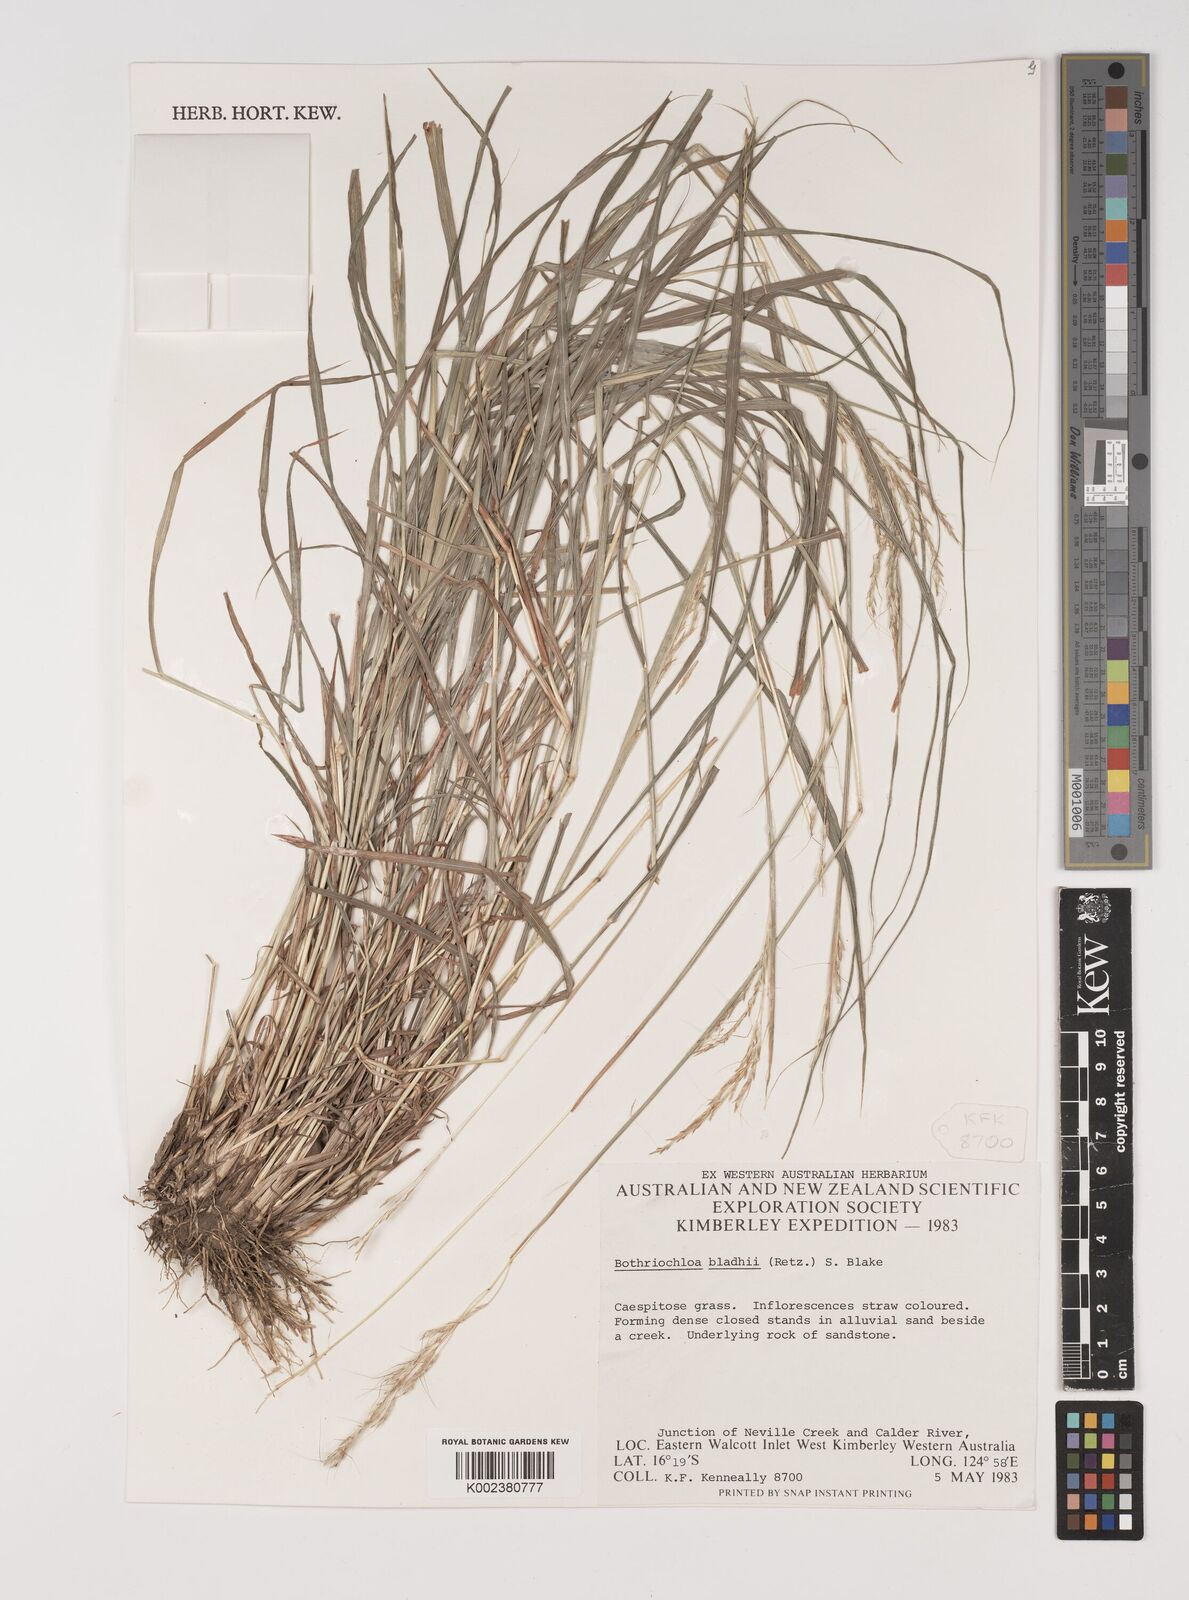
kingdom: Plantae
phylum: Tracheophyta
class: Liliopsida
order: Poales
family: Poaceae
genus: Bothriochloa
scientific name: Bothriochloa bladhii
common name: Caucasian bluestem
